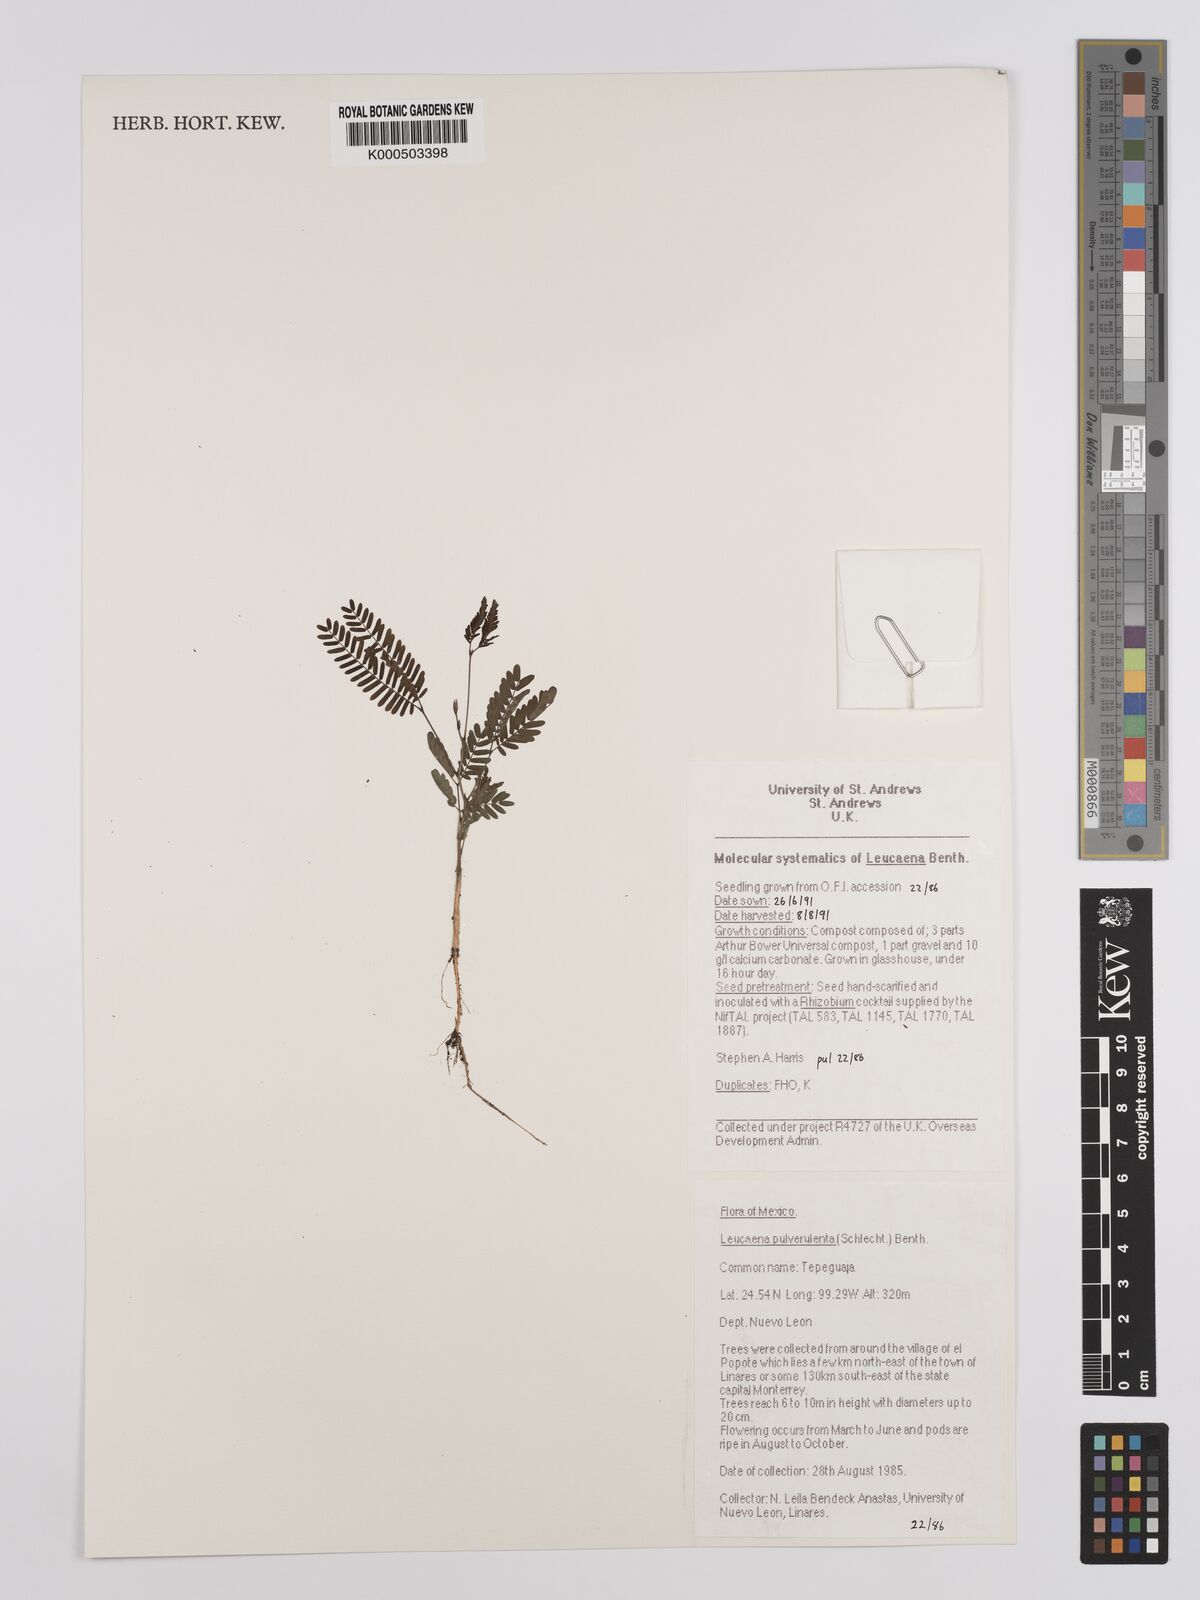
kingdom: Plantae
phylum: Tracheophyta
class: Magnoliopsida
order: Fabales
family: Fabaceae
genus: Leucaena
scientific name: Leucaena pulverulenta
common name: Great leadtree
